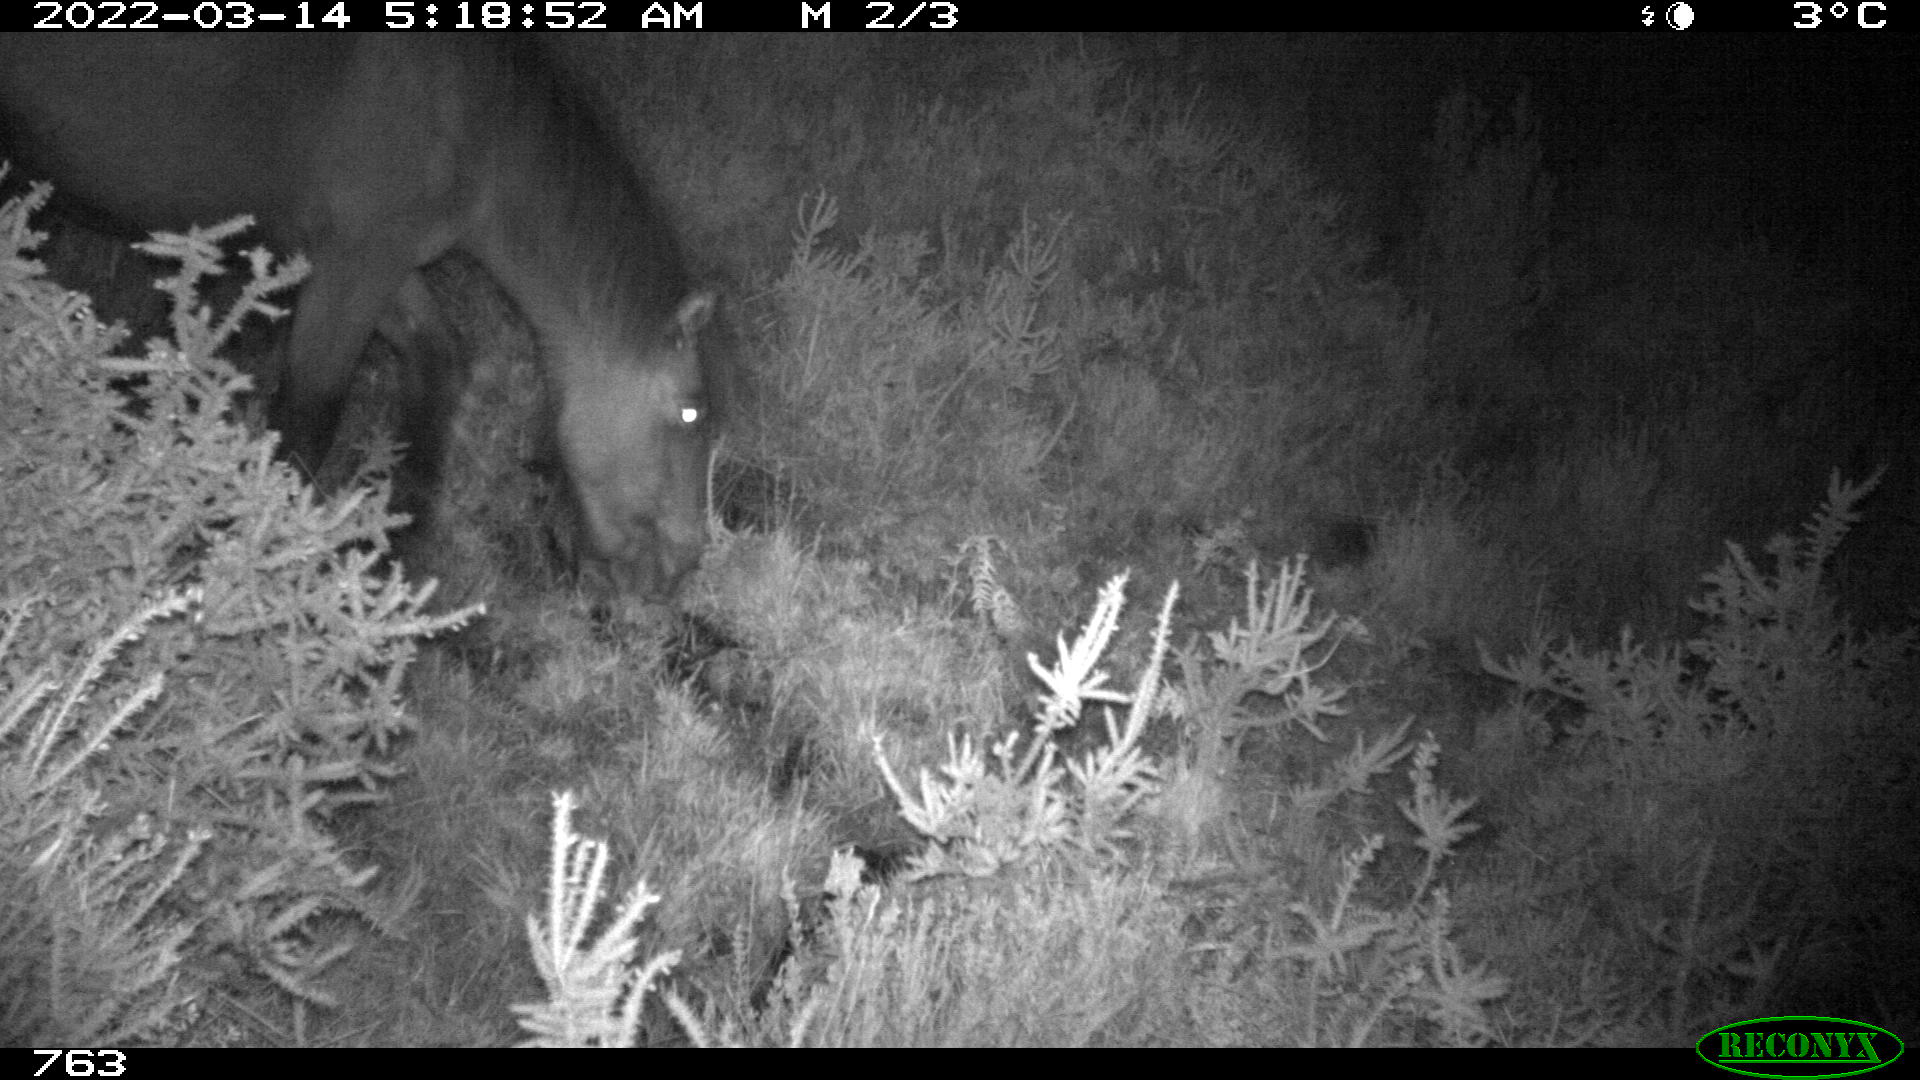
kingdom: Animalia
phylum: Chordata
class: Mammalia
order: Perissodactyla
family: Equidae
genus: Equus
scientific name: Equus caballus
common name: Horse
